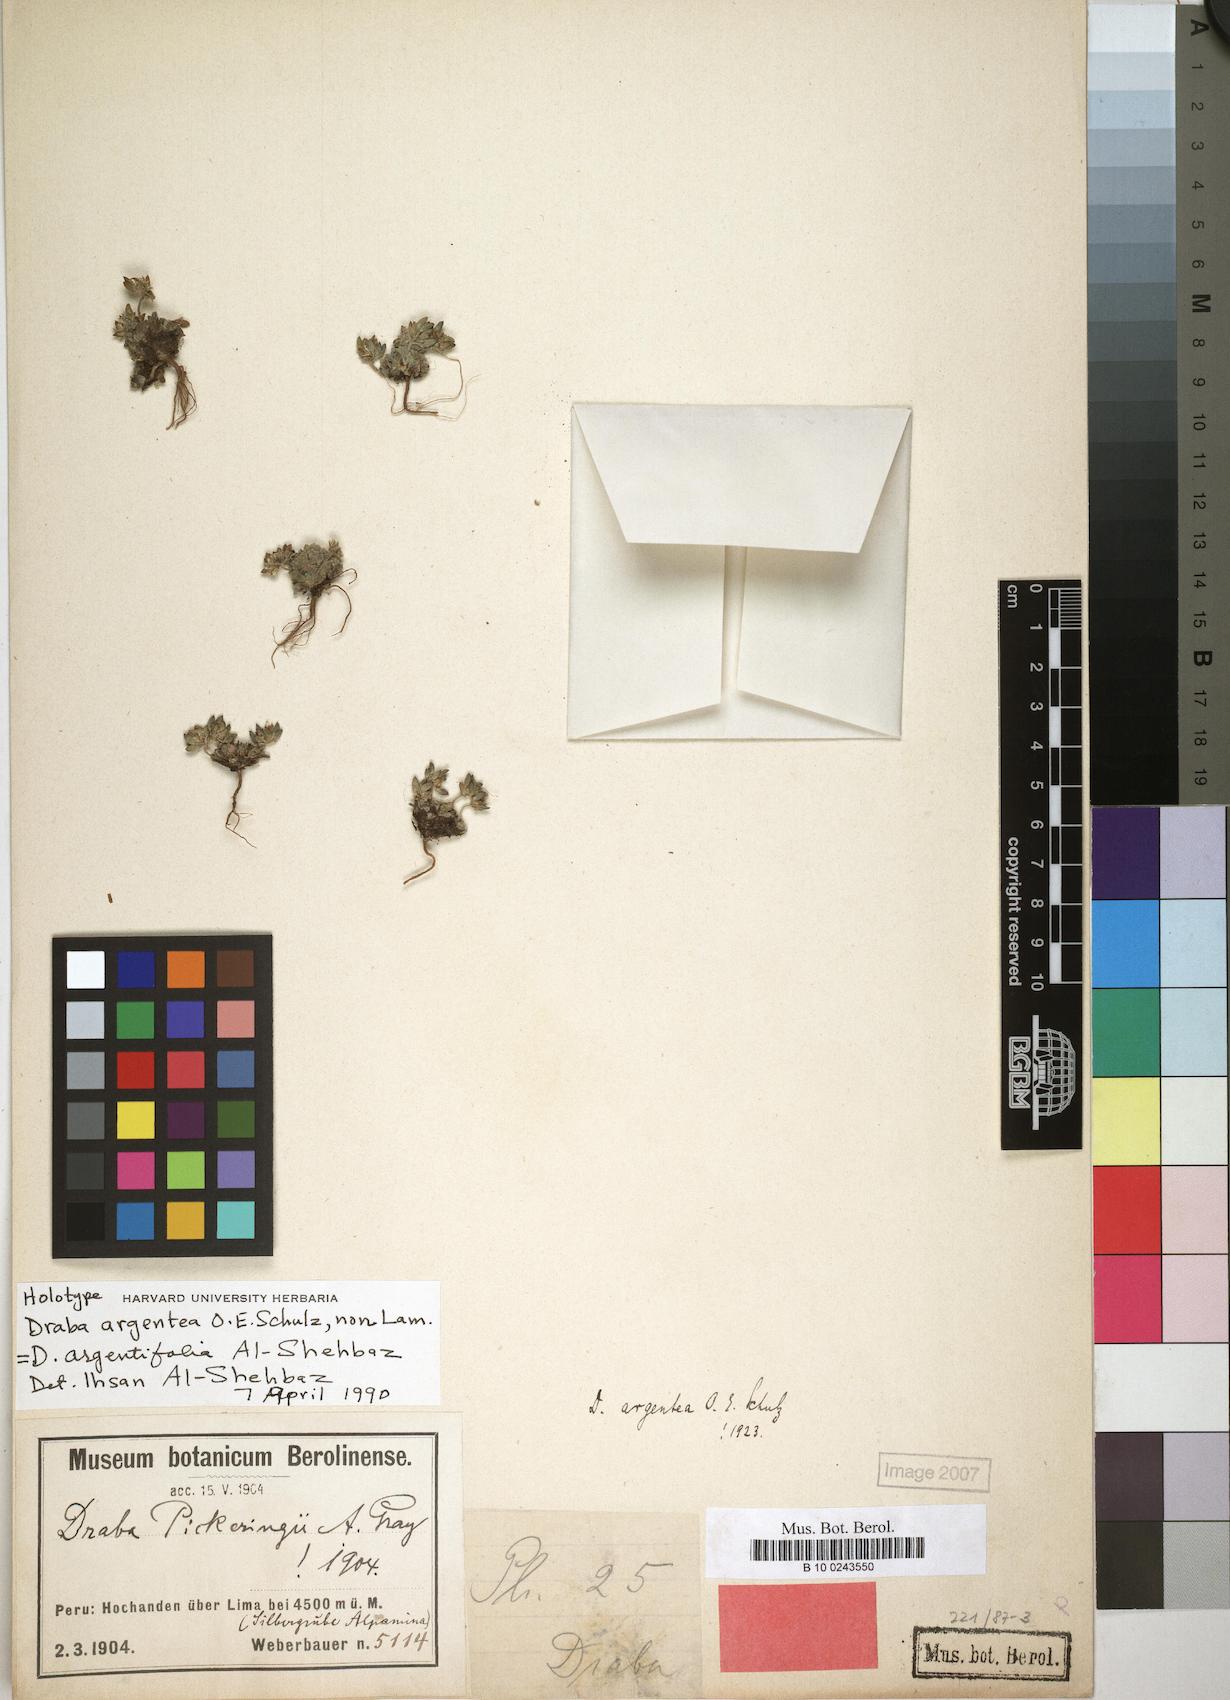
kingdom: Plantae
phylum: Tracheophyta
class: Magnoliopsida
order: Brassicales
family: Brassicaceae
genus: Draba
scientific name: Draba argentifolia
